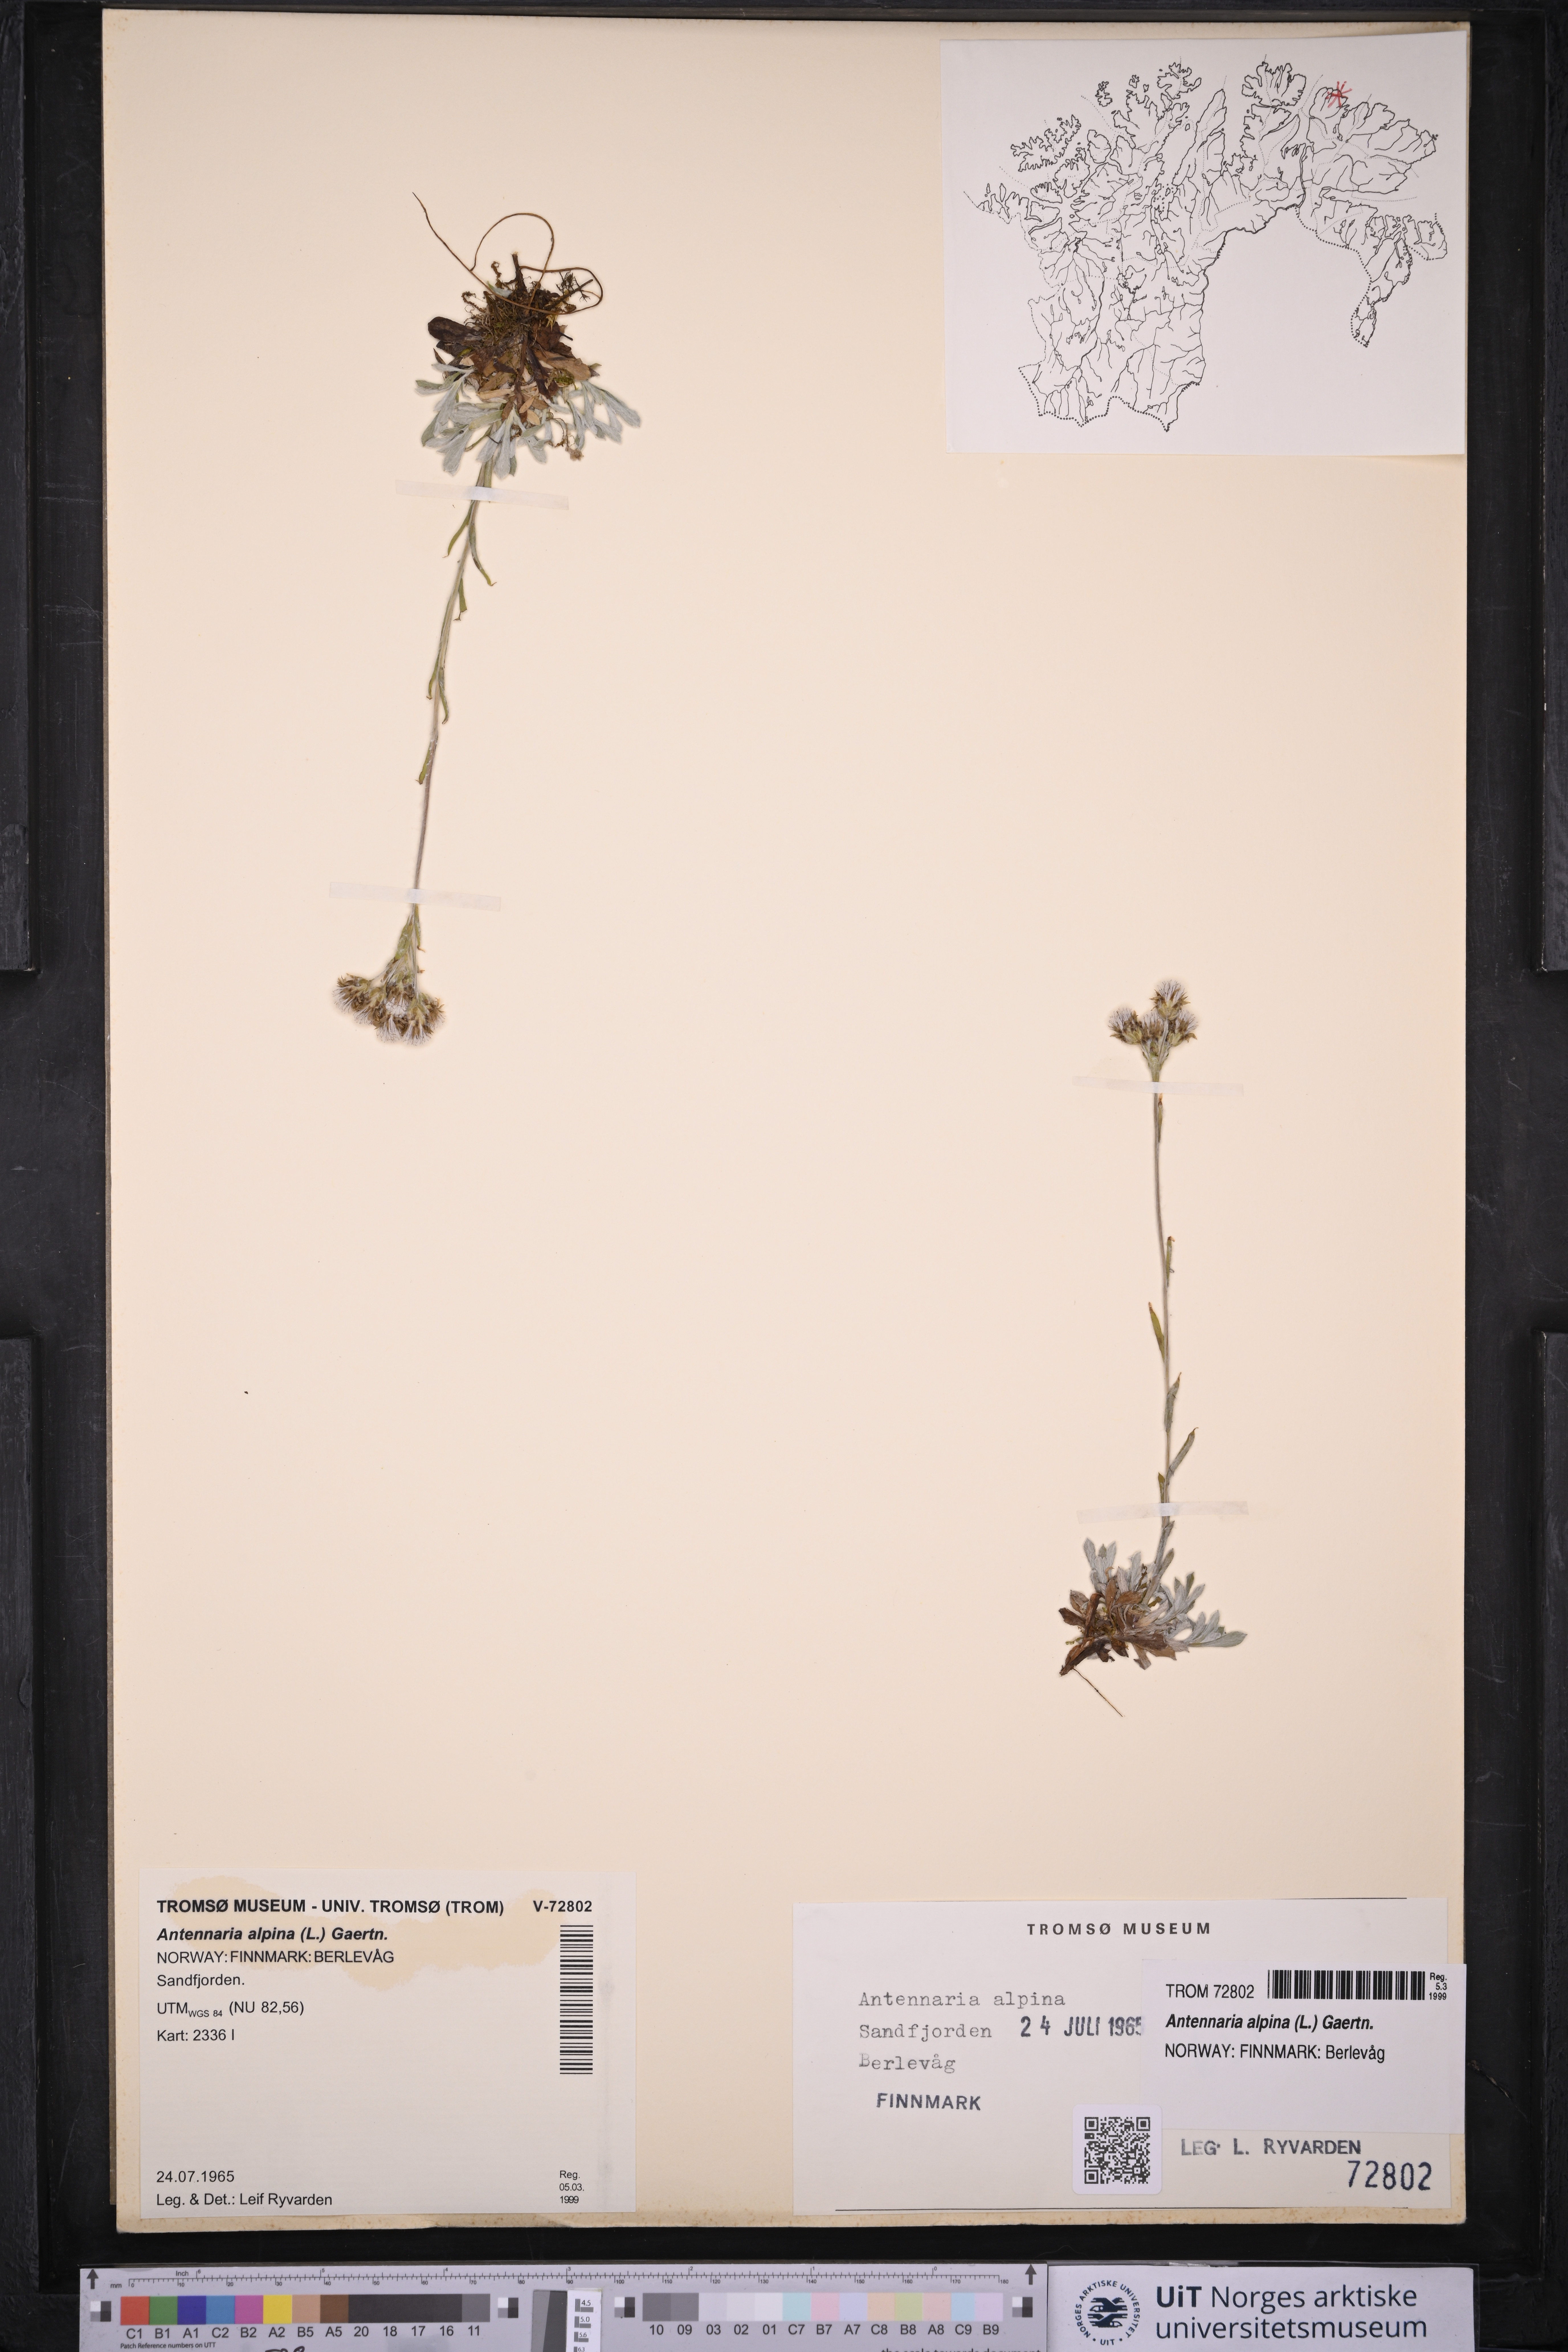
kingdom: Plantae
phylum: Tracheophyta
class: Magnoliopsida
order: Asterales
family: Asteraceae
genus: Antennaria
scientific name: Antennaria alpina
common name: Alpine pussytoes
